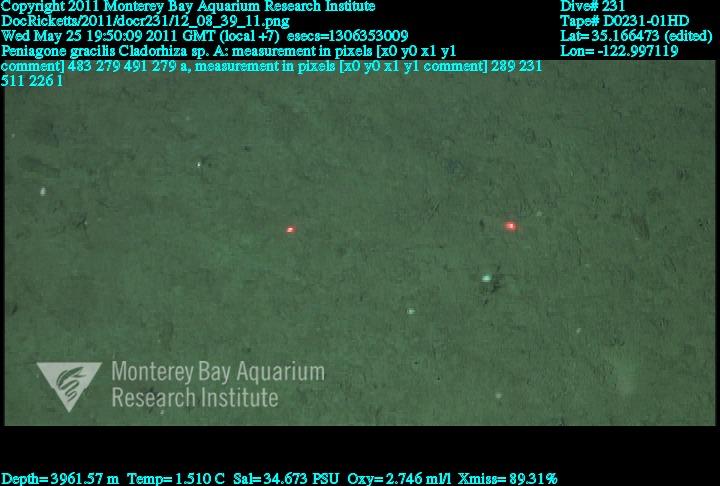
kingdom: Animalia
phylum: Porifera
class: Demospongiae
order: Poecilosclerida
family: Cladorhizidae
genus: Cladorhiza
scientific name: Cladorhiza
